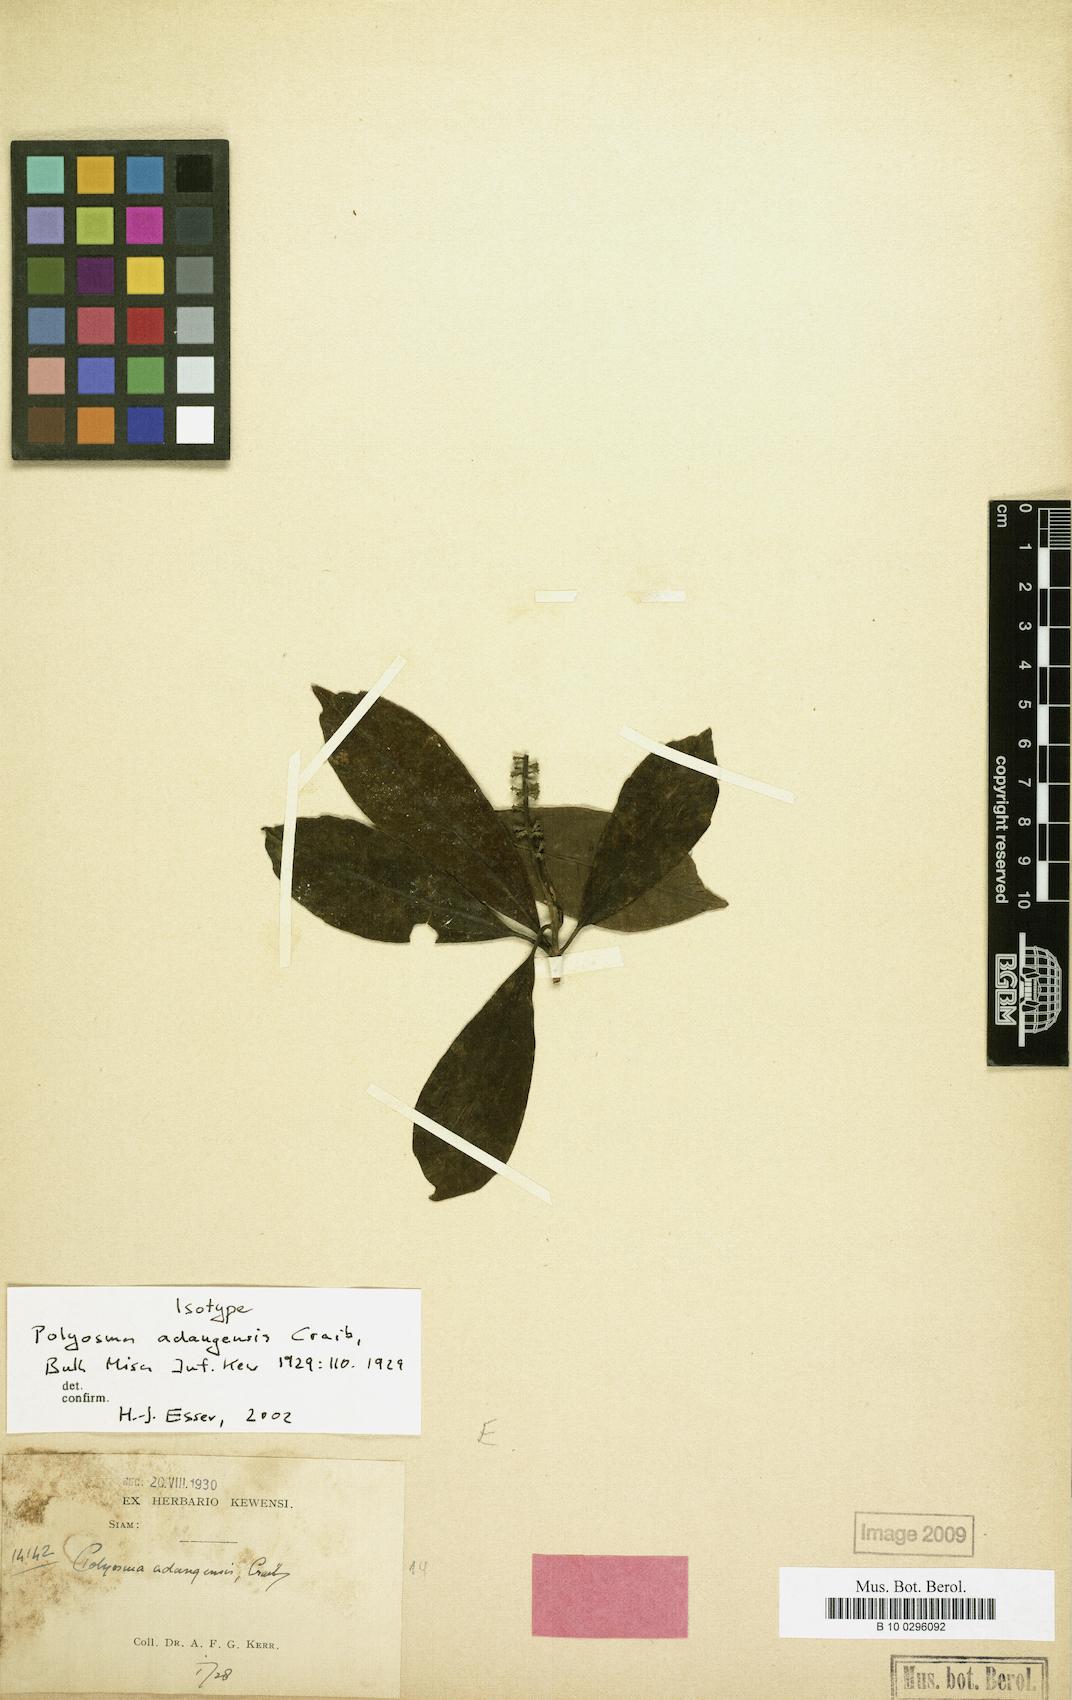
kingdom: Plantae
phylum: Tracheophyta
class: Magnoliopsida
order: Escalloniales
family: Escalloniaceae
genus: Polyosma
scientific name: Polyosma fragrans
